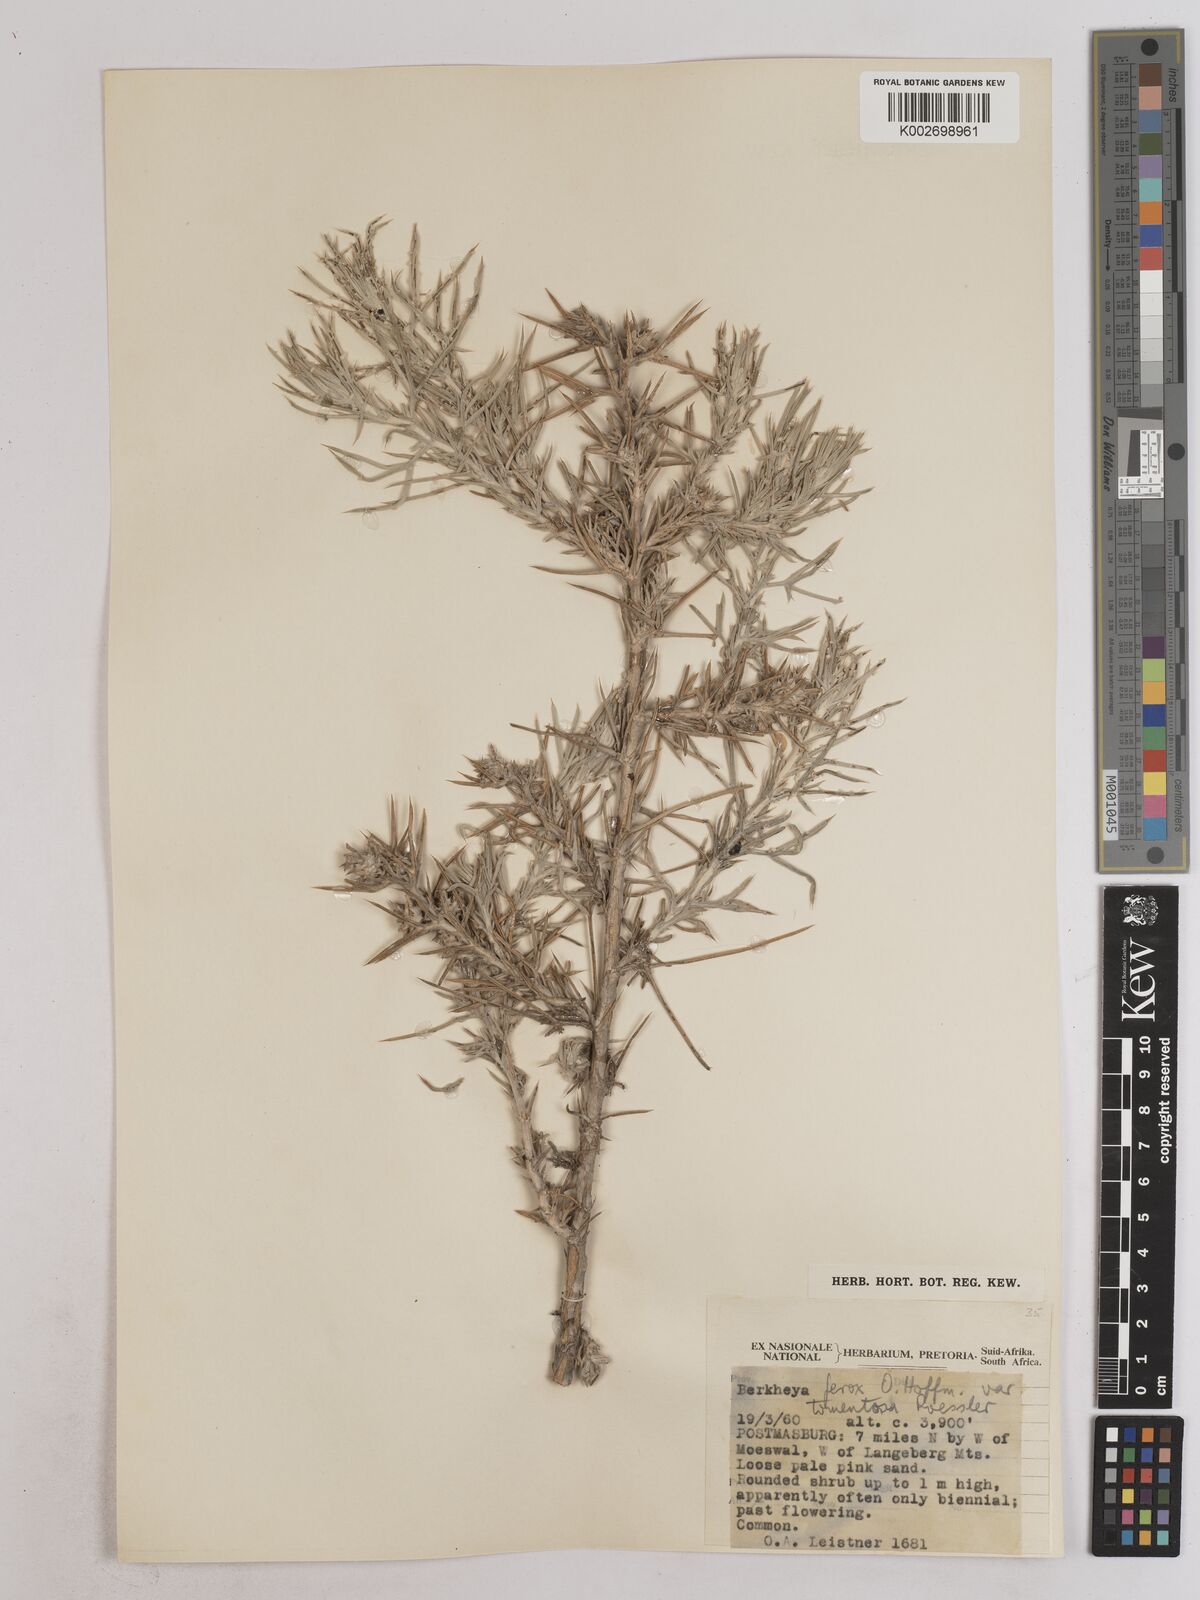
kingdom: Plantae
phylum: Tracheophyta
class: Magnoliopsida
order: Asterales
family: Asteraceae
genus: Berkheya
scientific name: Berkheya ferox
